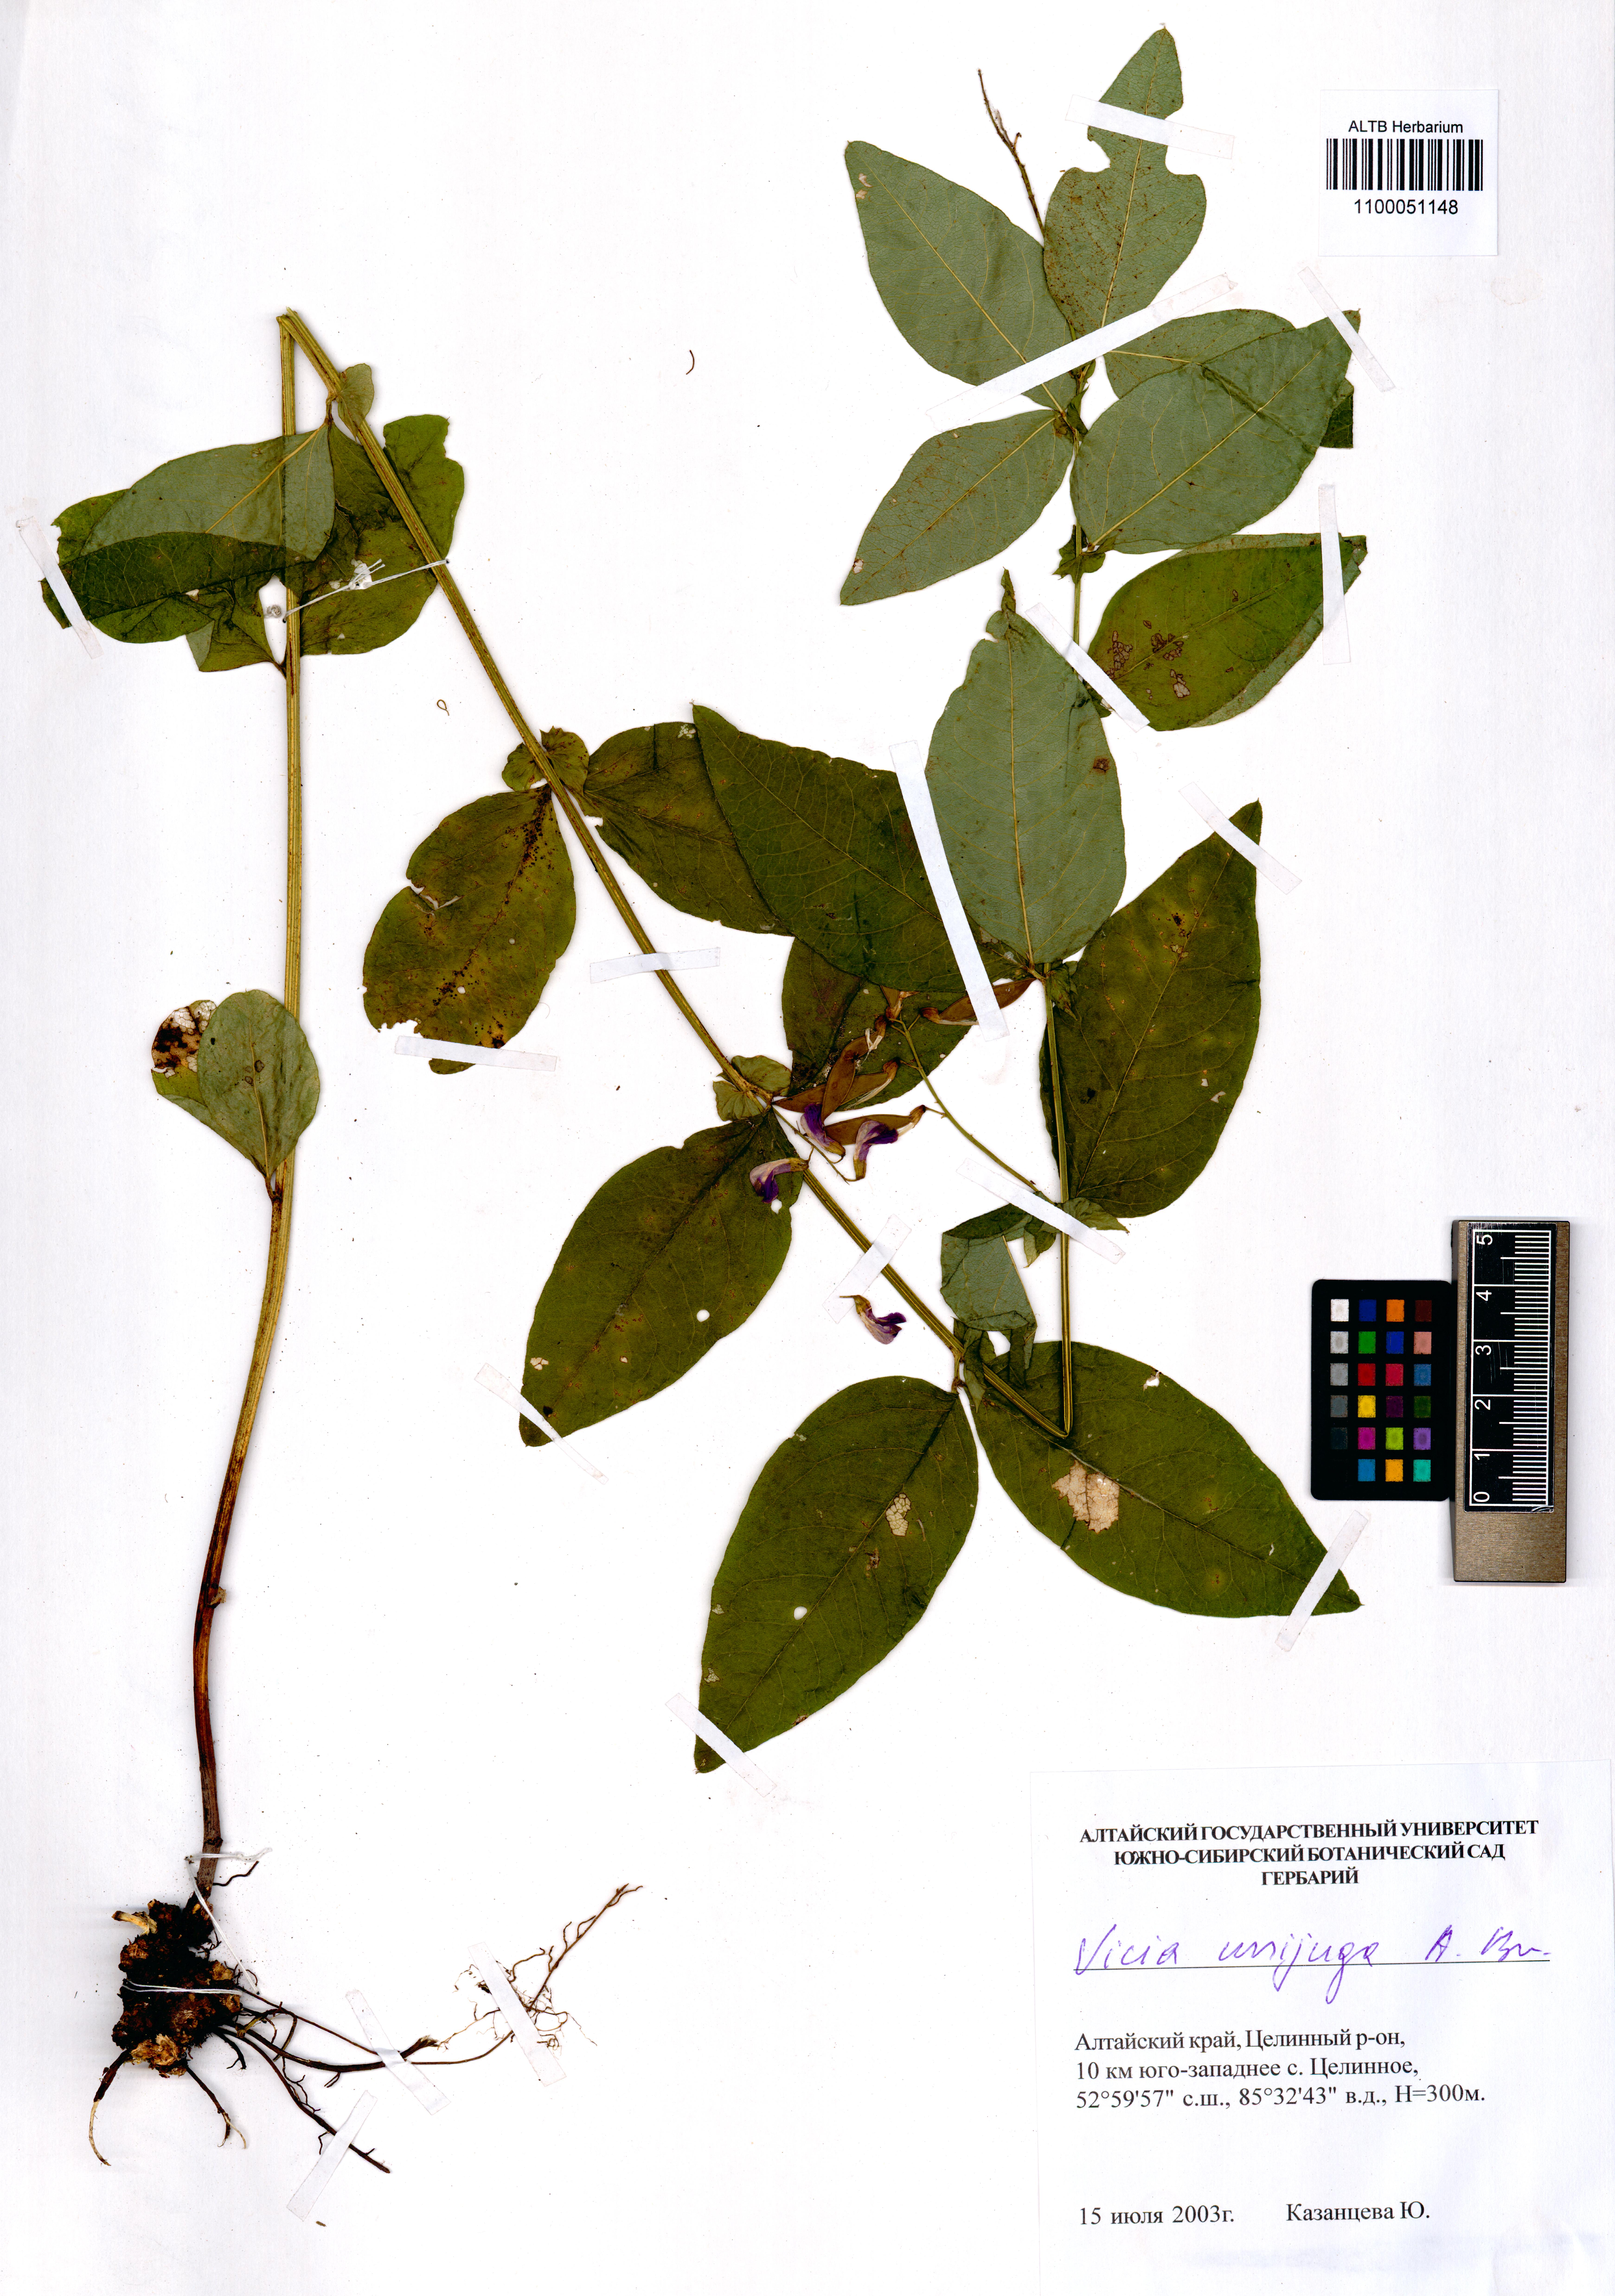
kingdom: Plantae
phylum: Tracheophyta
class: Magnoliopsida
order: Fabales
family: Fabaceae
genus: Vicia
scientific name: Vicia unijuga
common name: Two-leaf vetch
